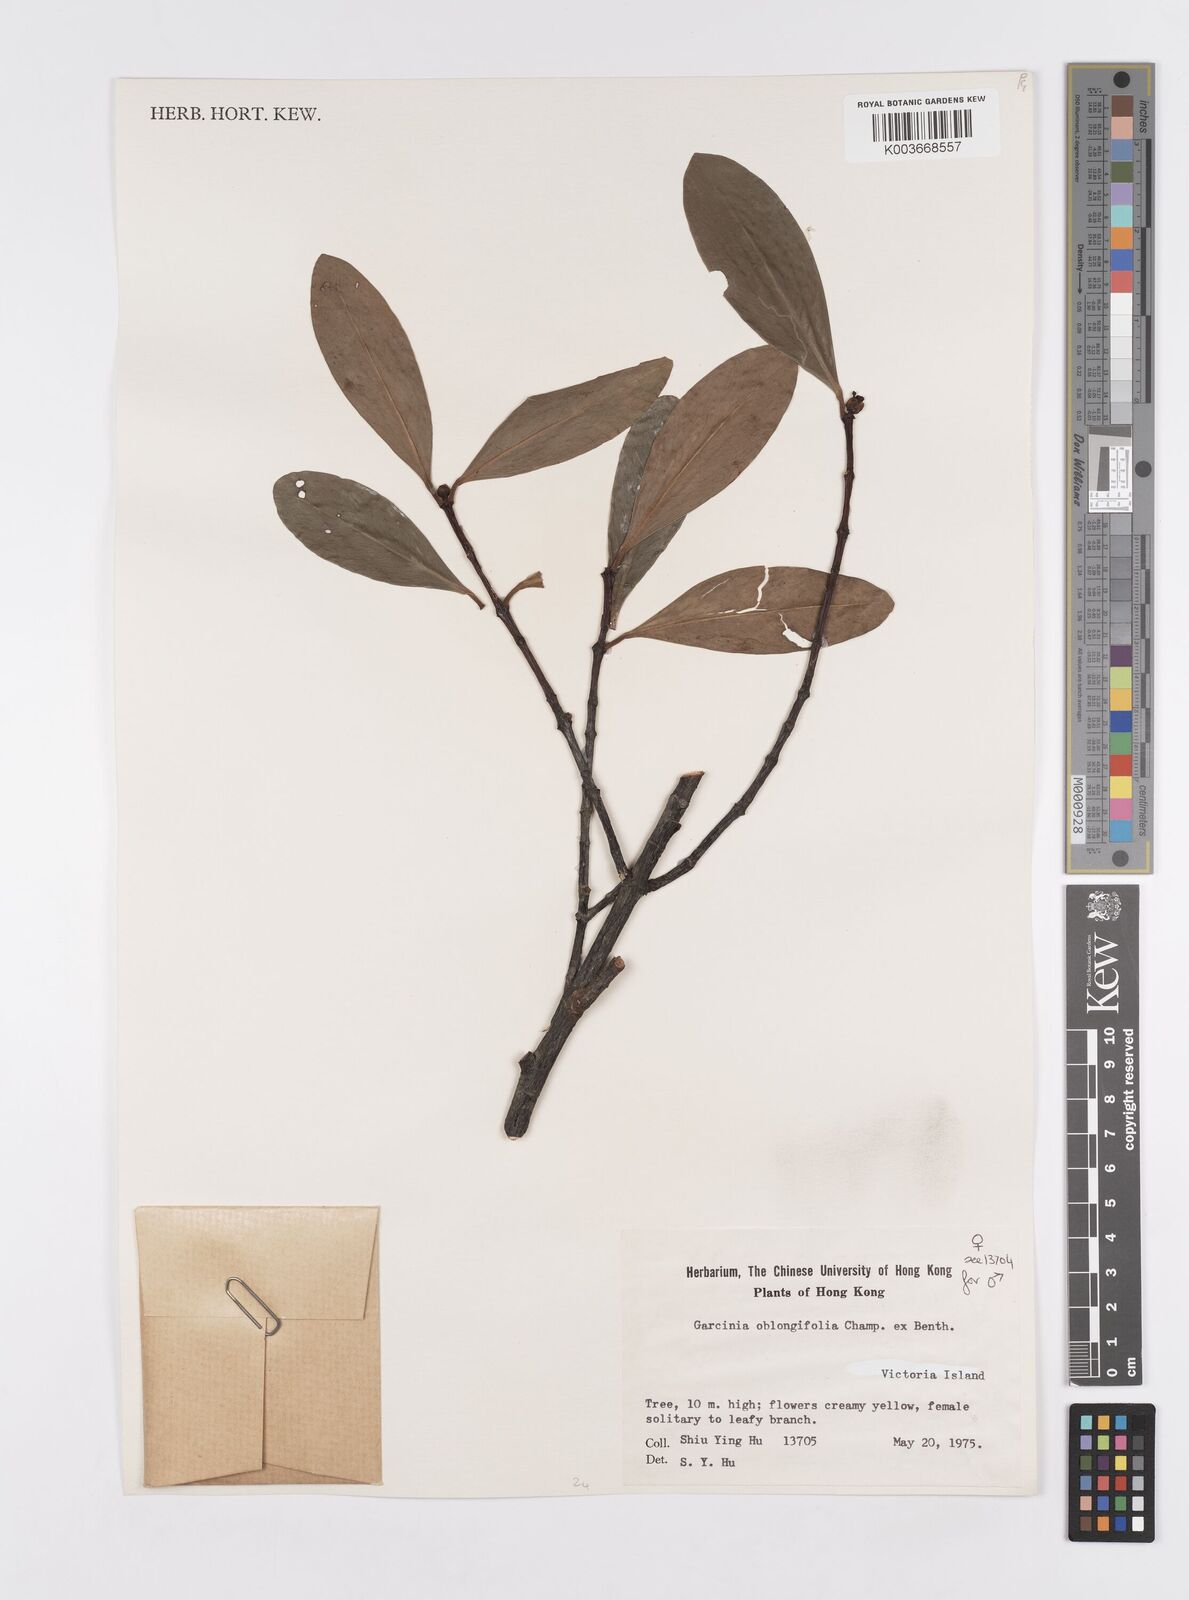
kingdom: Plantae
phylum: Tracheophyta
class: Magnoliopsida
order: Malpighiales
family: Clusiaceae
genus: Garcinia
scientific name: Garcinia oblongifolia
